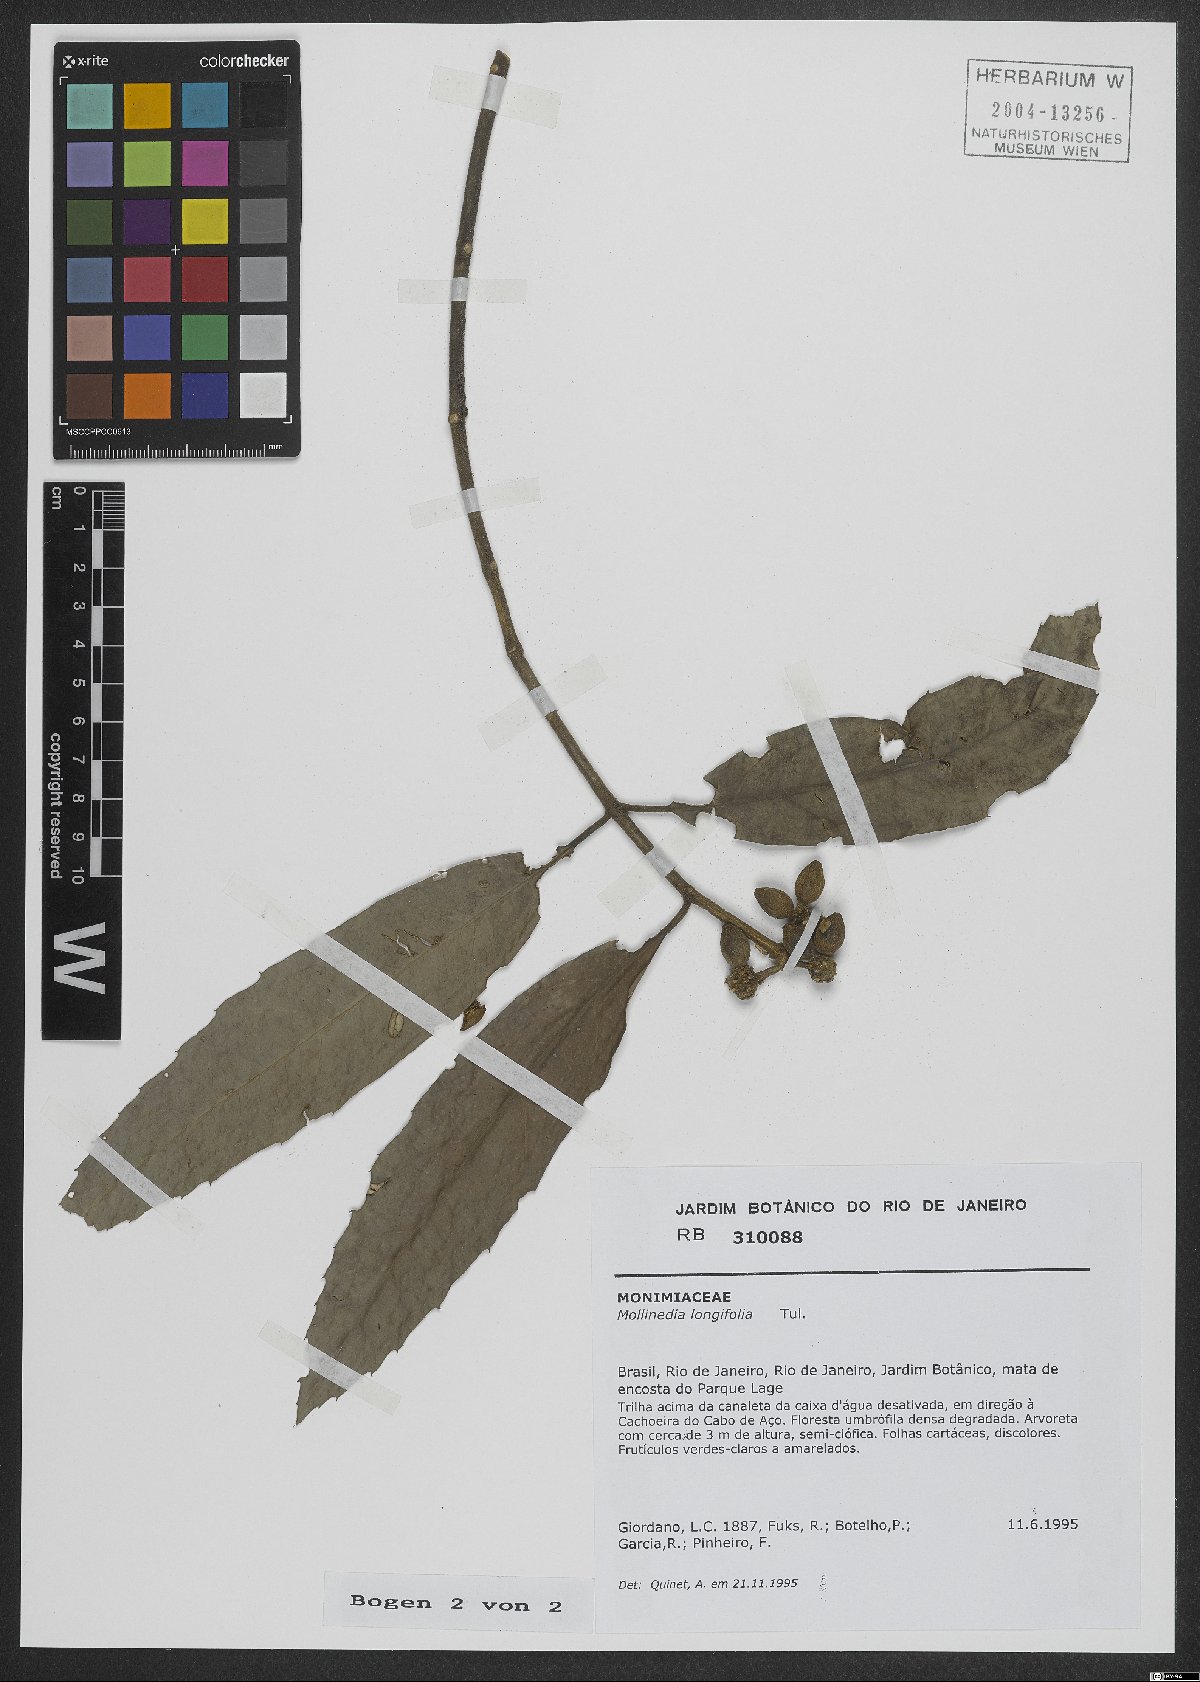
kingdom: Plantae
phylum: Tracheophyta
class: Magnoliopsida
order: Laurales
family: Monimiaceae
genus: Mollinedia
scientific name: Mollinedia longifolia
